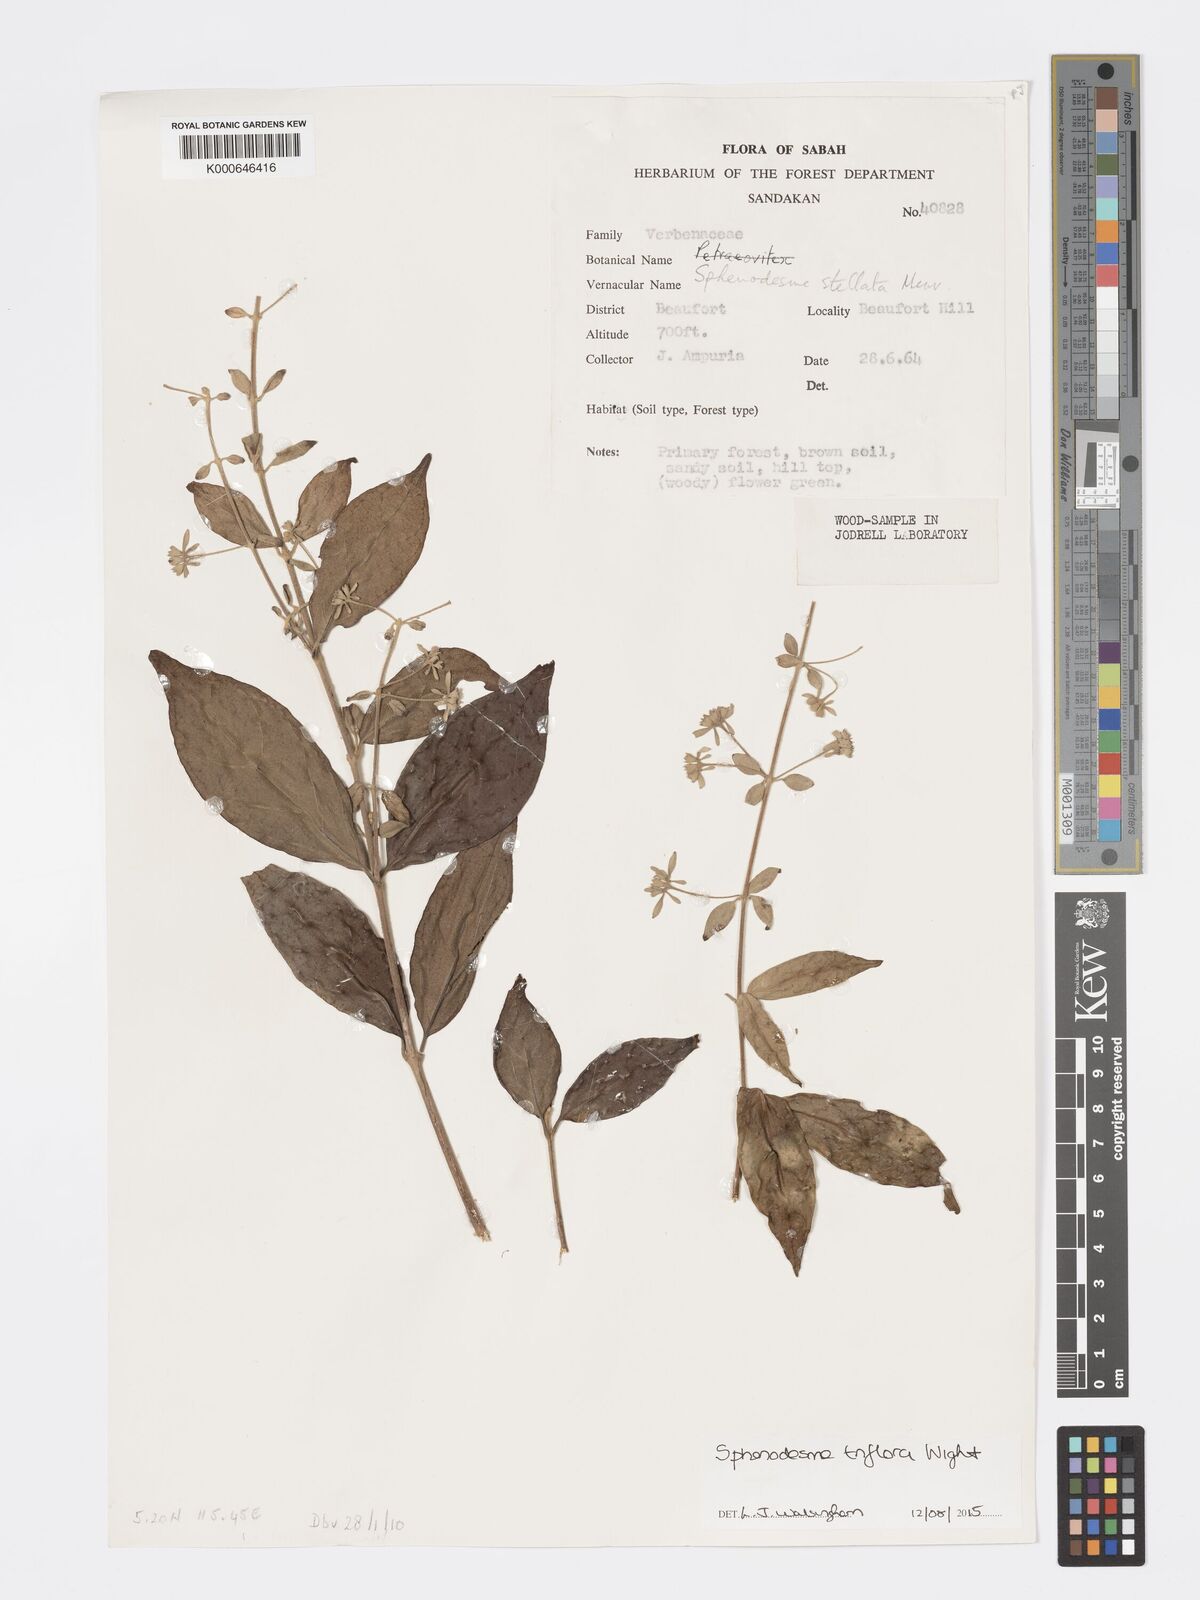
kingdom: Plantae
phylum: Tracheophyta
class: Magnoliopsida
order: Lamiales
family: Lamiaceae
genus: Sphenodesme
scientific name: Sphenodesme triflora
